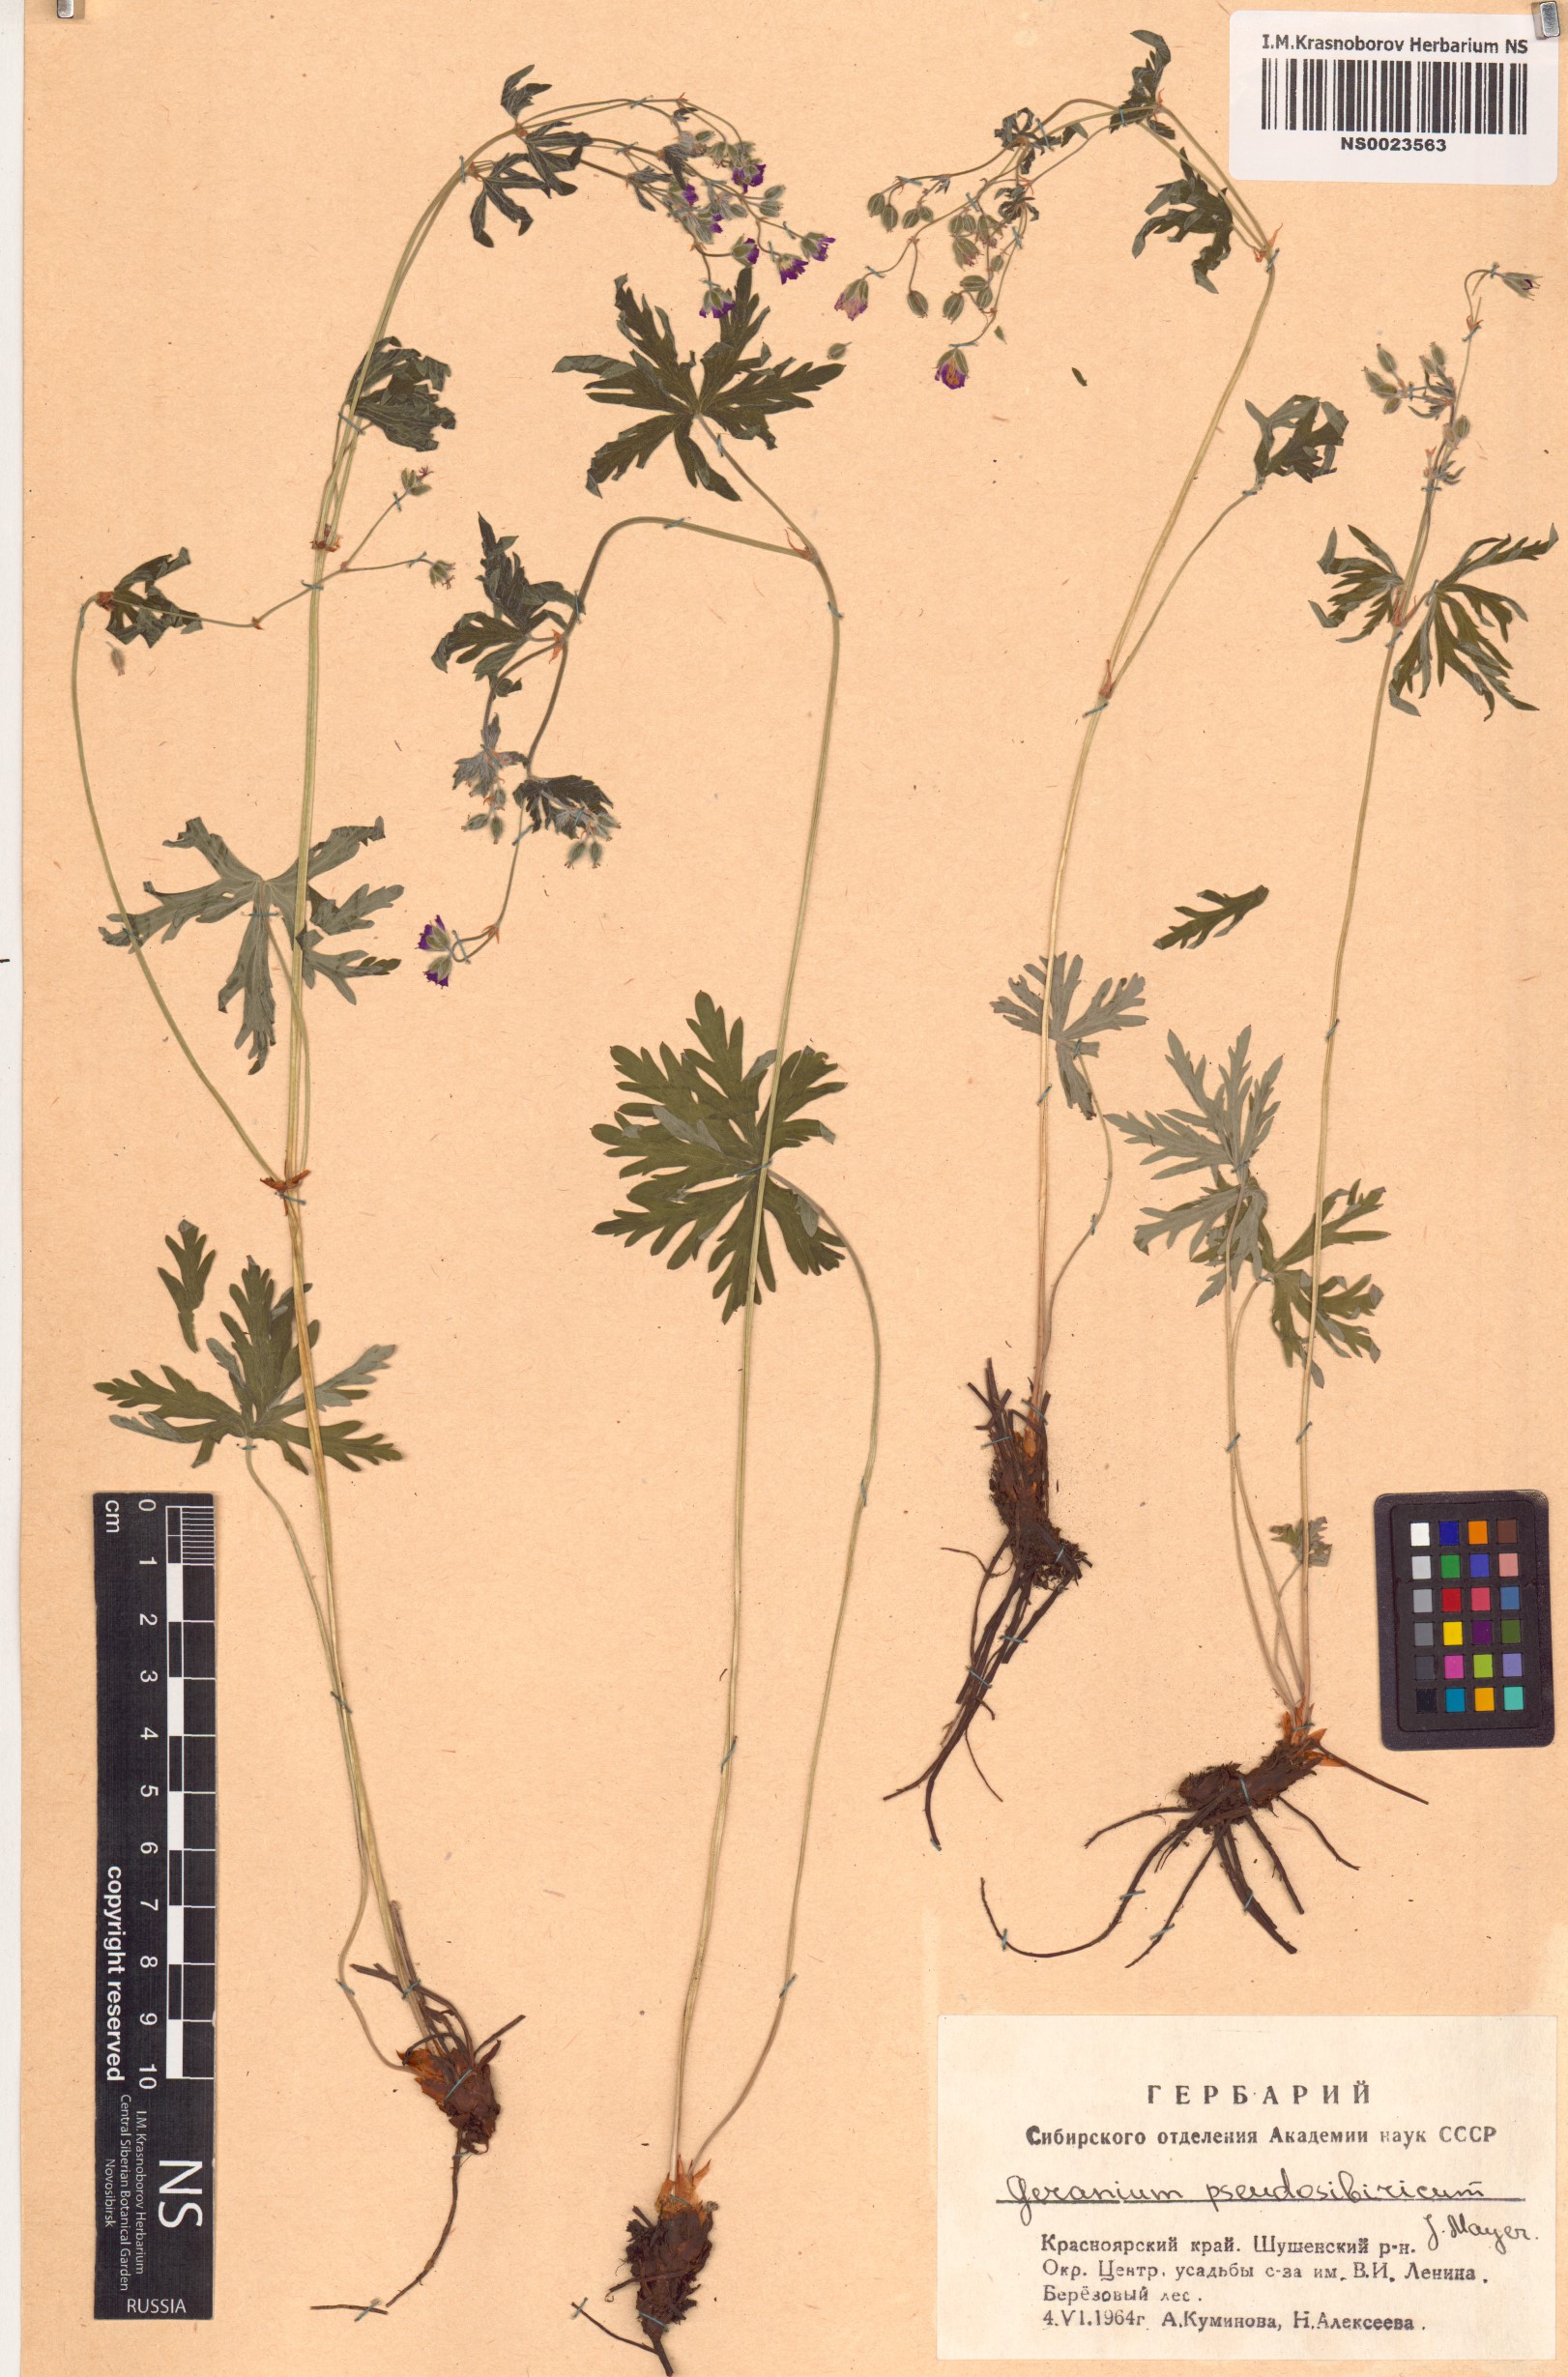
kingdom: Plantae
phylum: Tracheophyta
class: Magnoliopsida
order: Geraniales
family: Geraniaceae
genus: Geranium
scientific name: Geranium pseudosibiricum
